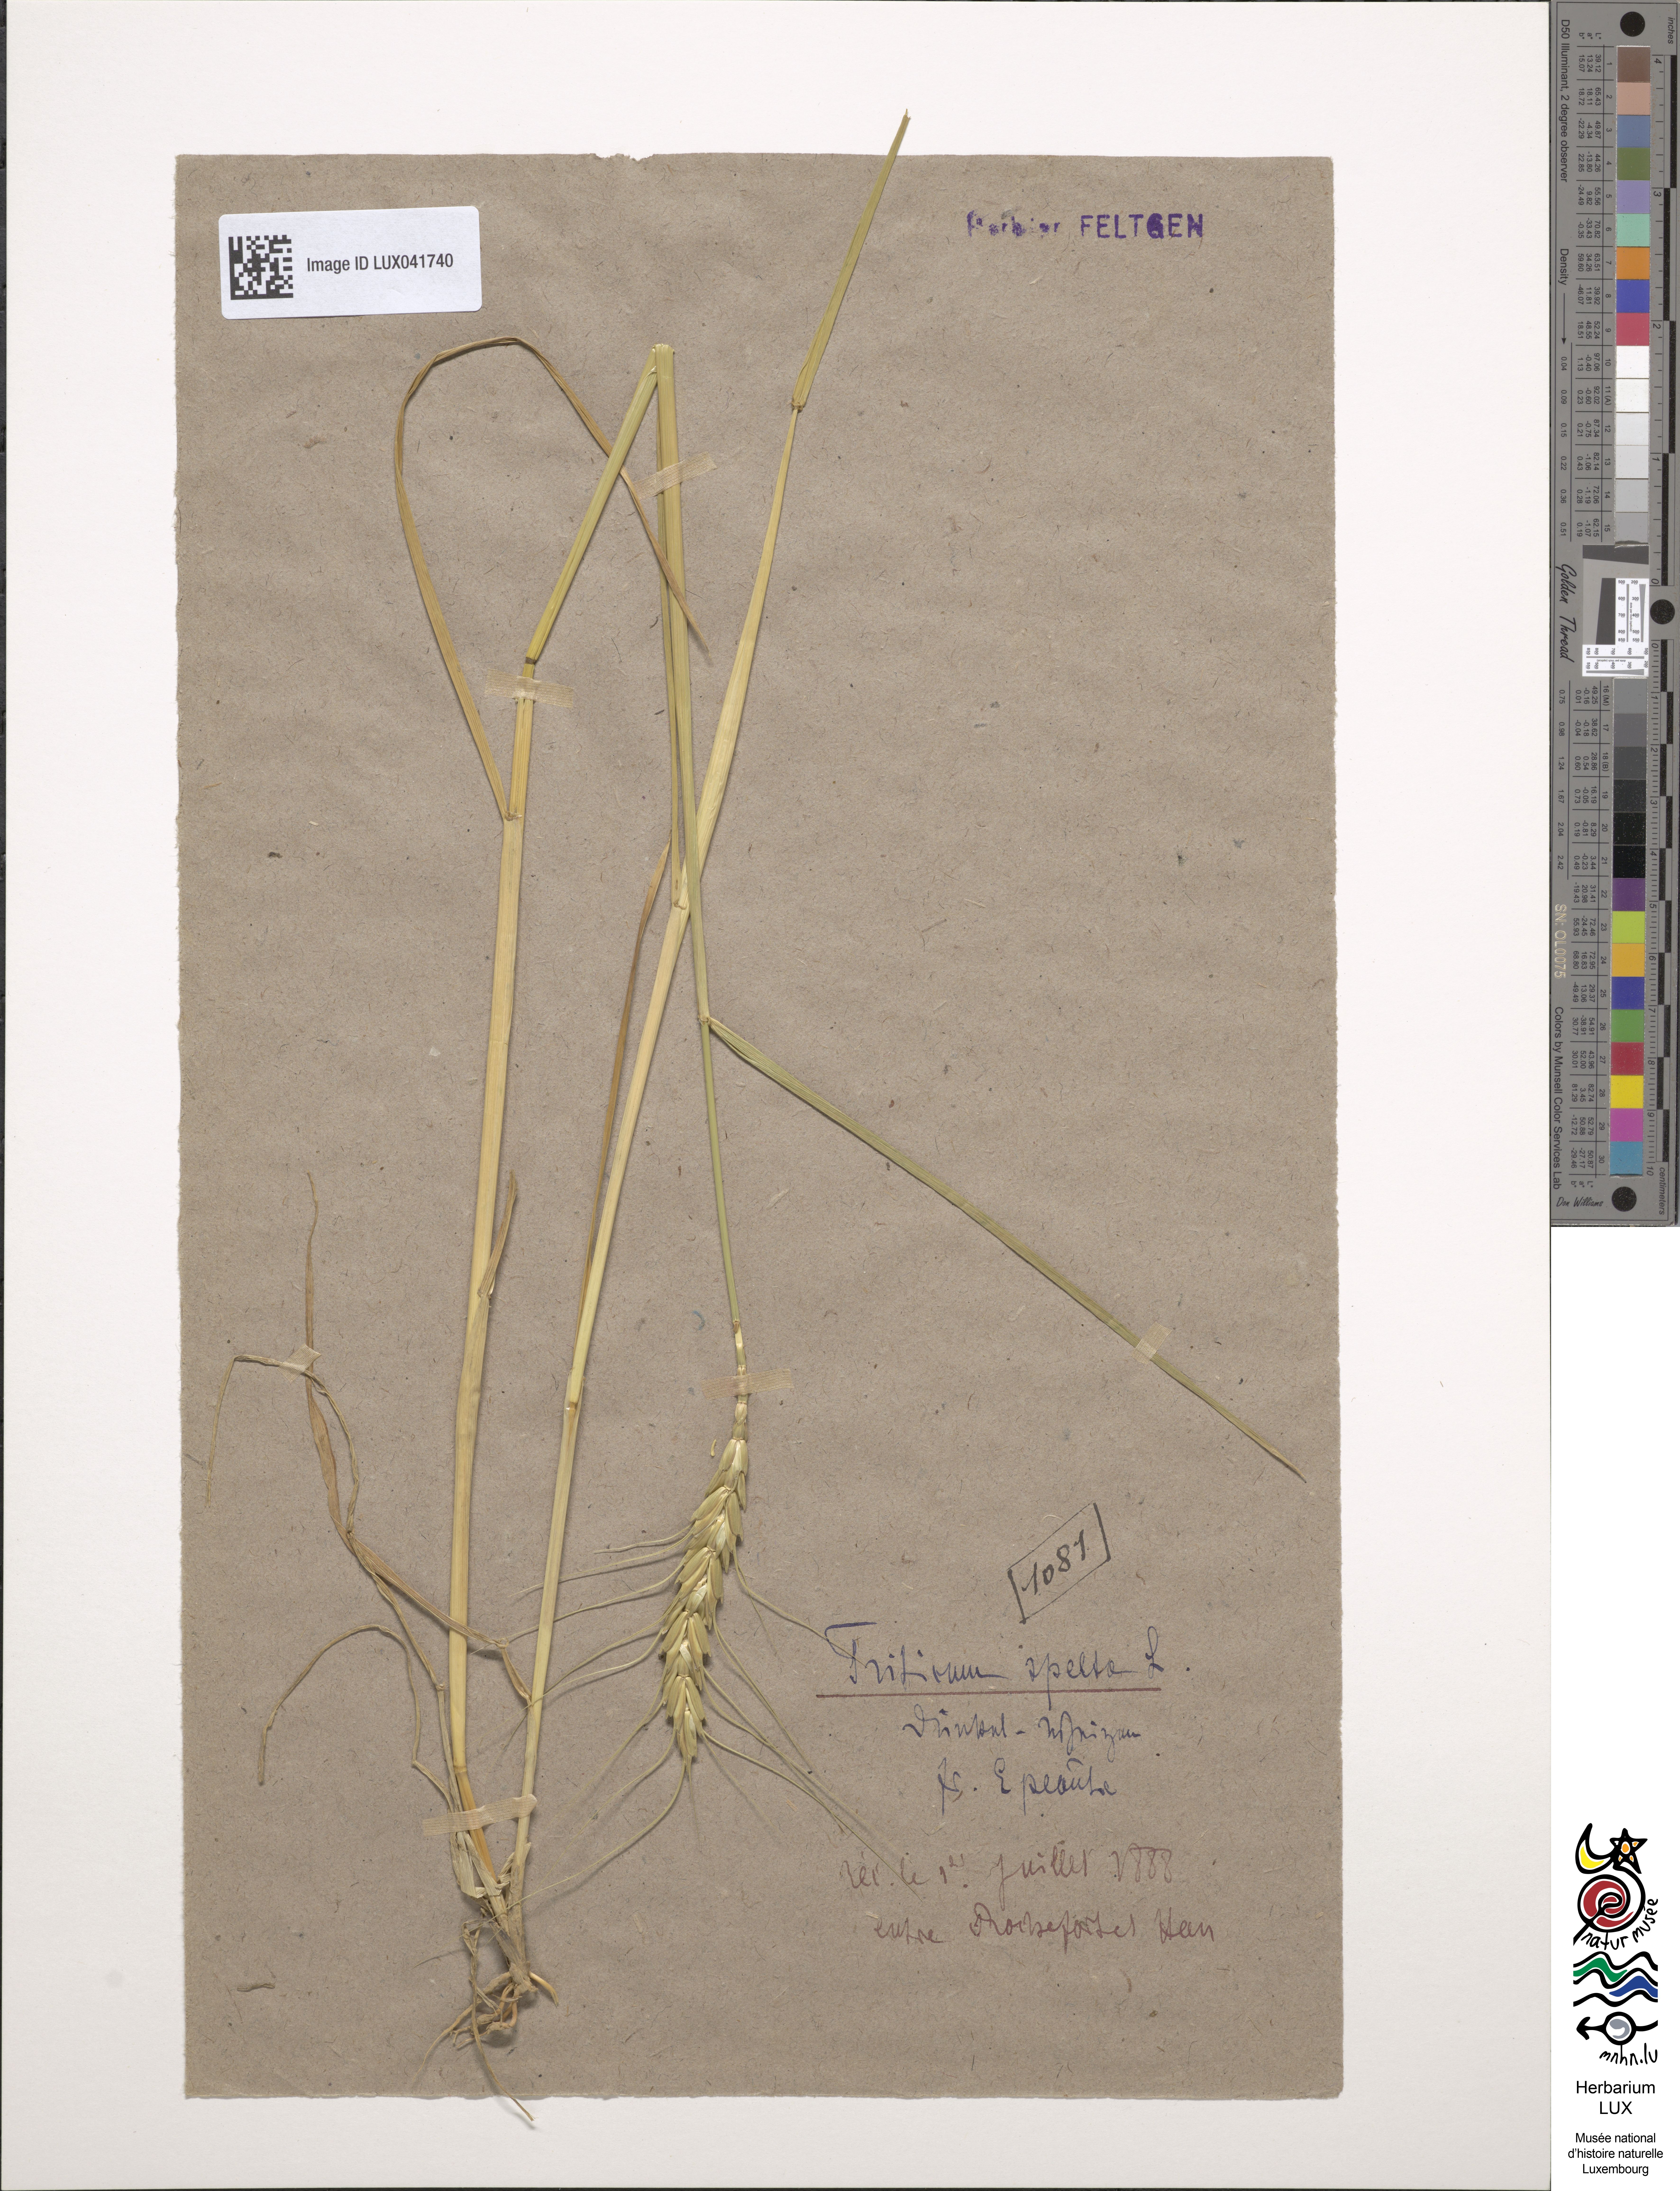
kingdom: Plantae
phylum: Tracheophyta
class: Liliopsida
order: Poales
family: Poaceae
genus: Triticum
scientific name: Triticum aestivum
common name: Common wheat
